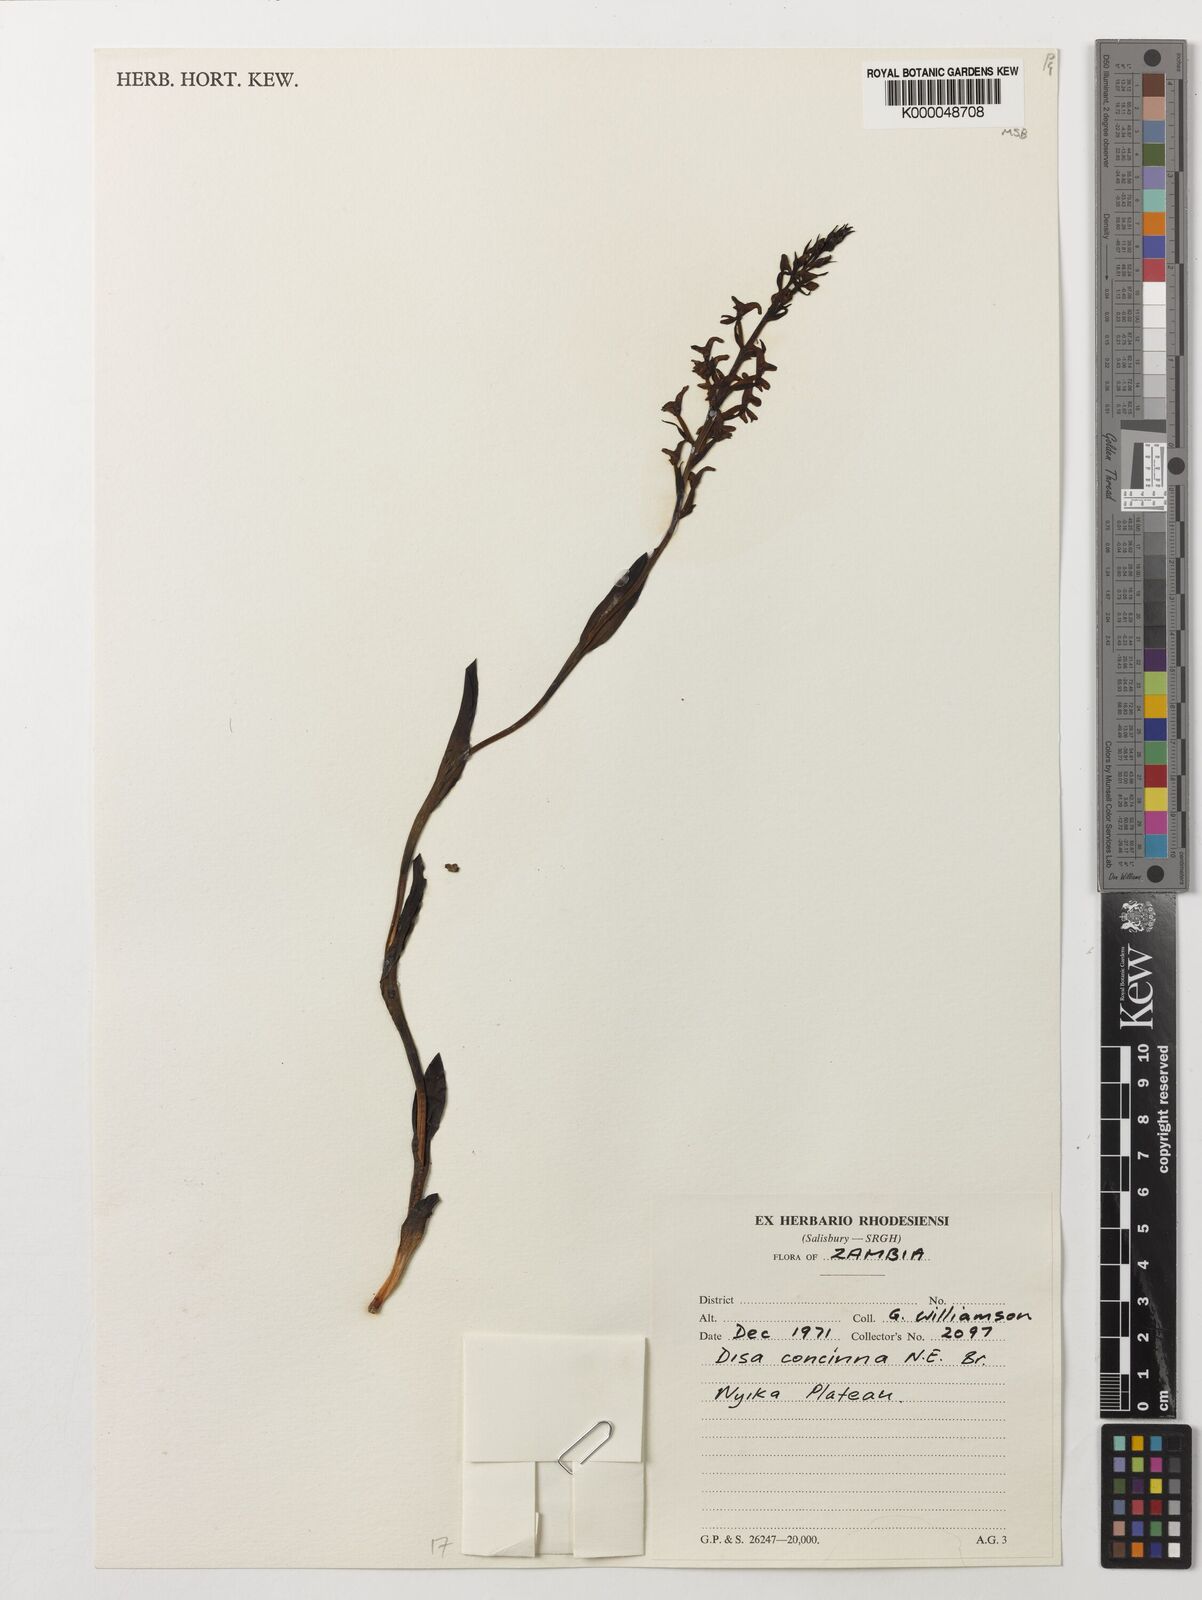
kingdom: Plantae
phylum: Tracheophyta
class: Liliopsida
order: Asparagales
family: Orchidaceae
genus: Disa
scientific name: Disa nyikensis
